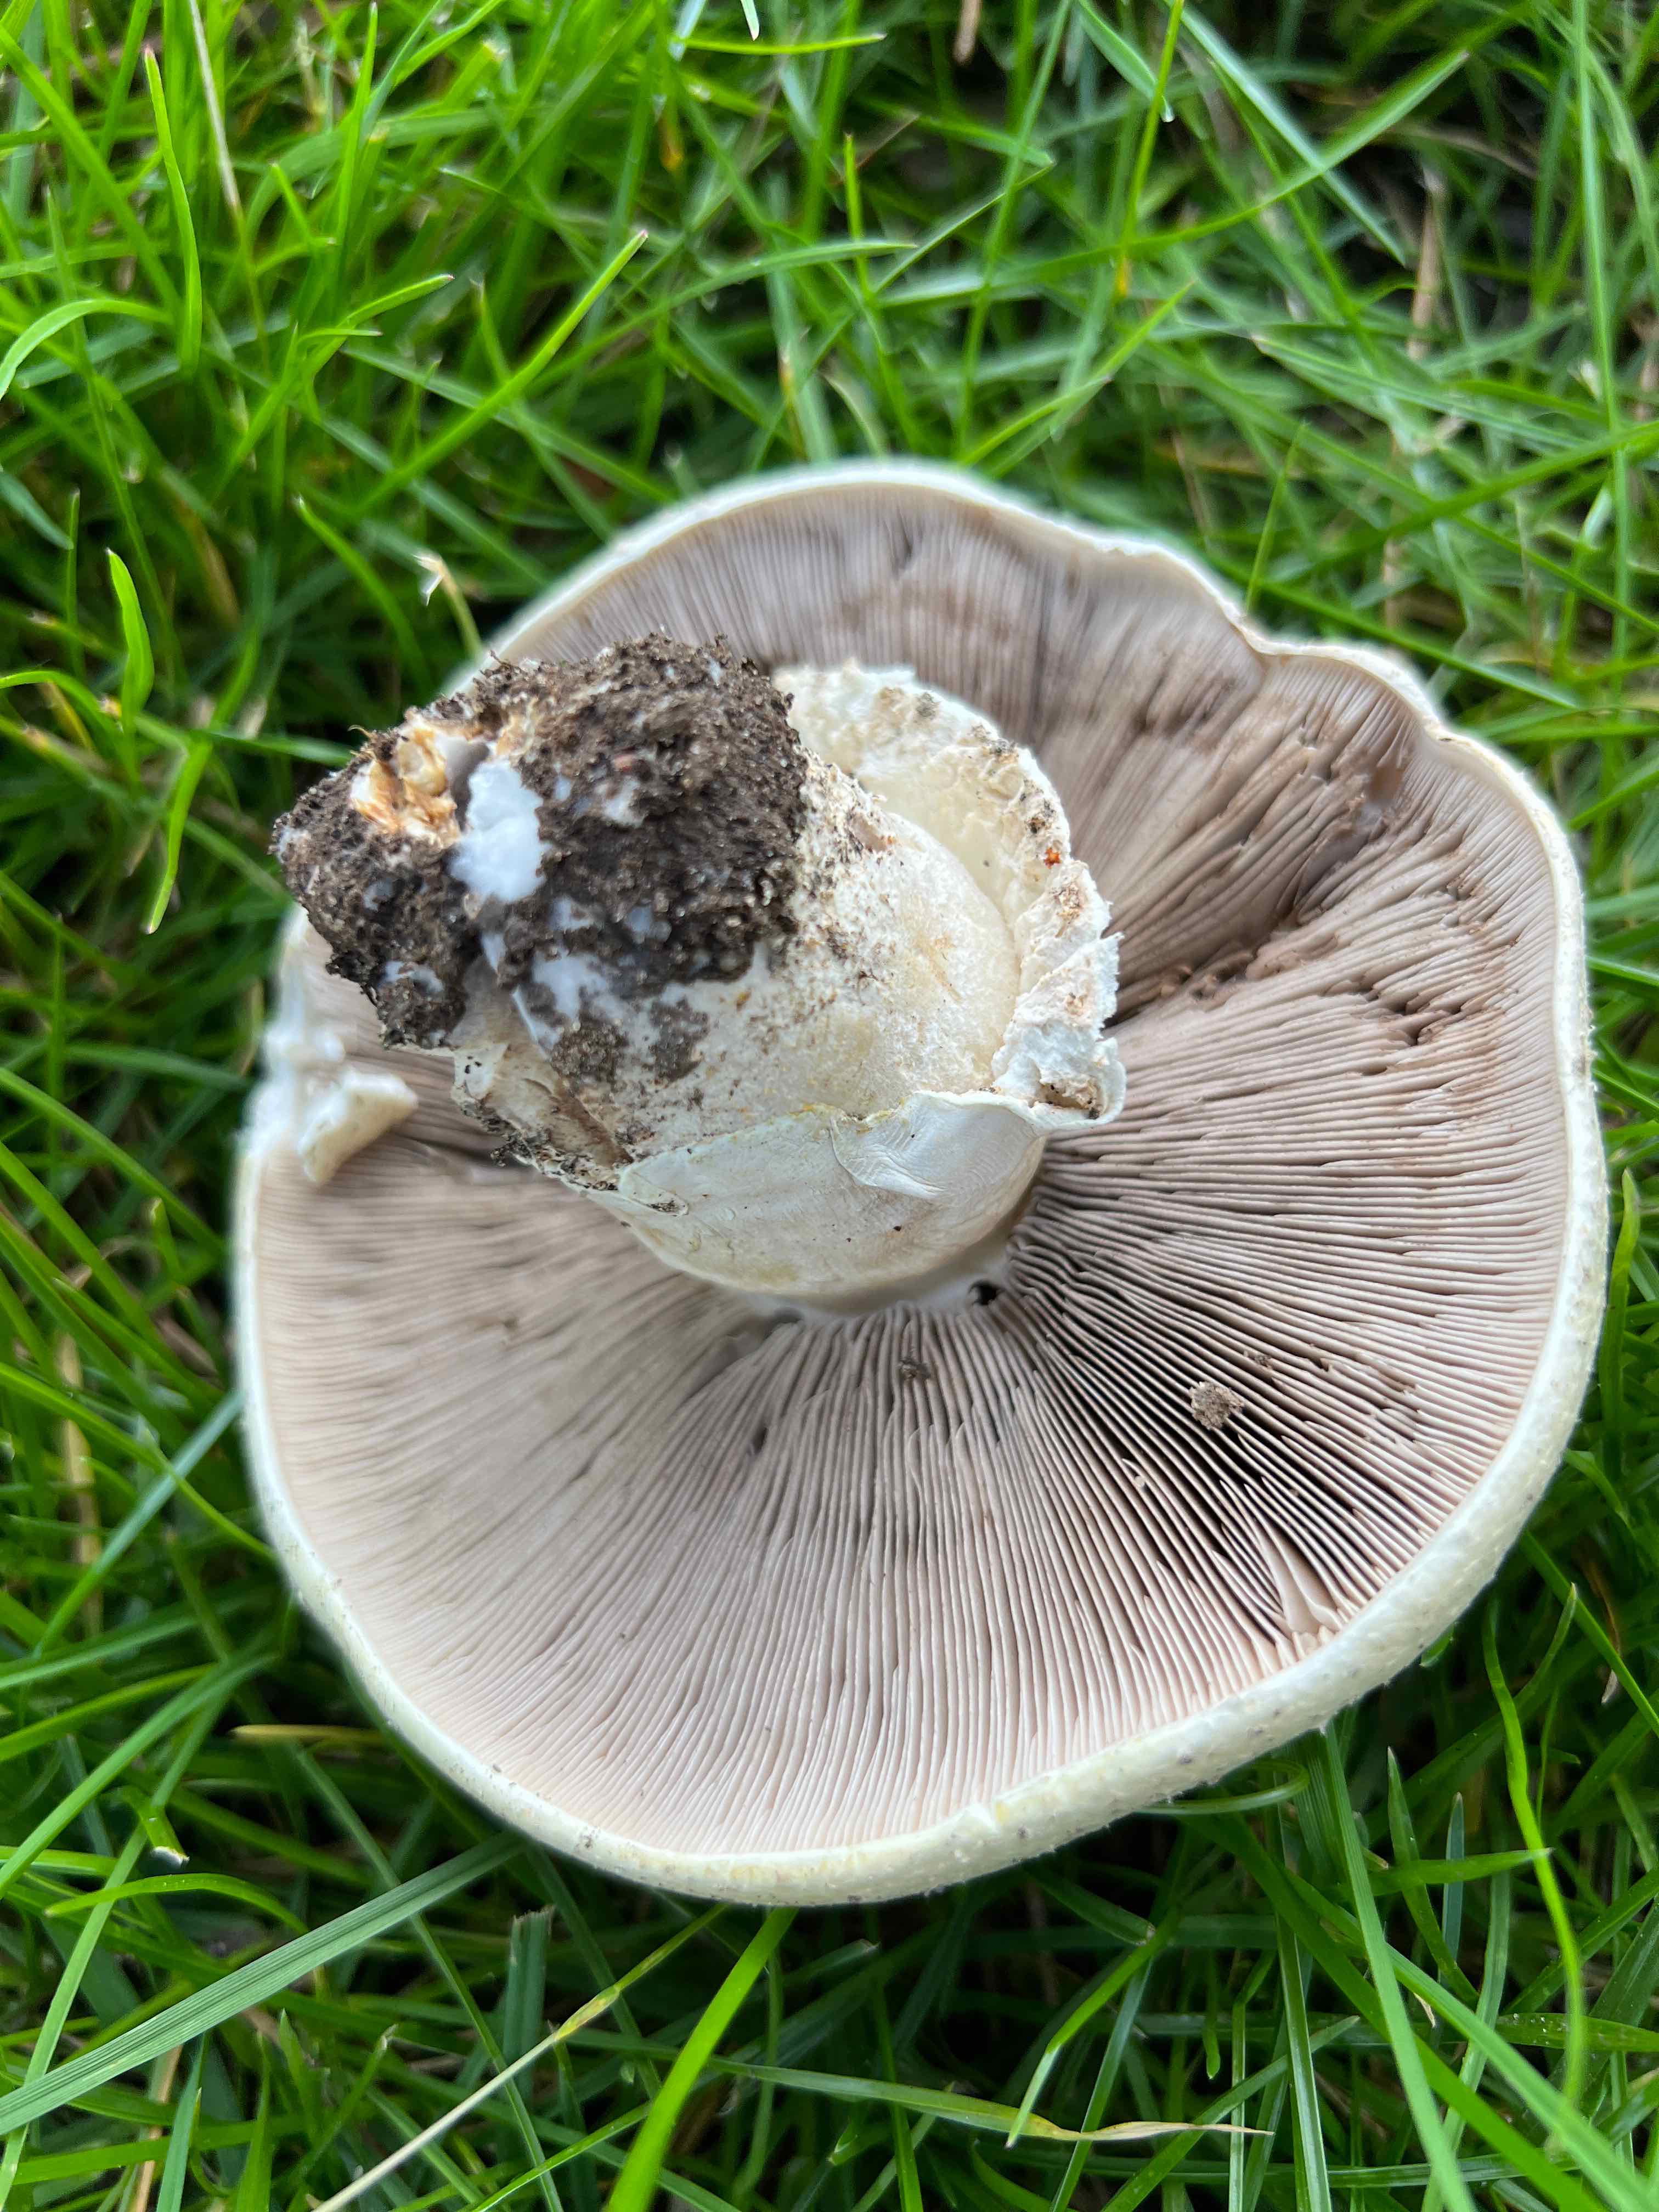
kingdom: Fungi
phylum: Basidiomycota
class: Agaricomycetes
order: Agaricales
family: Agaricaceae
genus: Agaricus
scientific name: Agaricus
